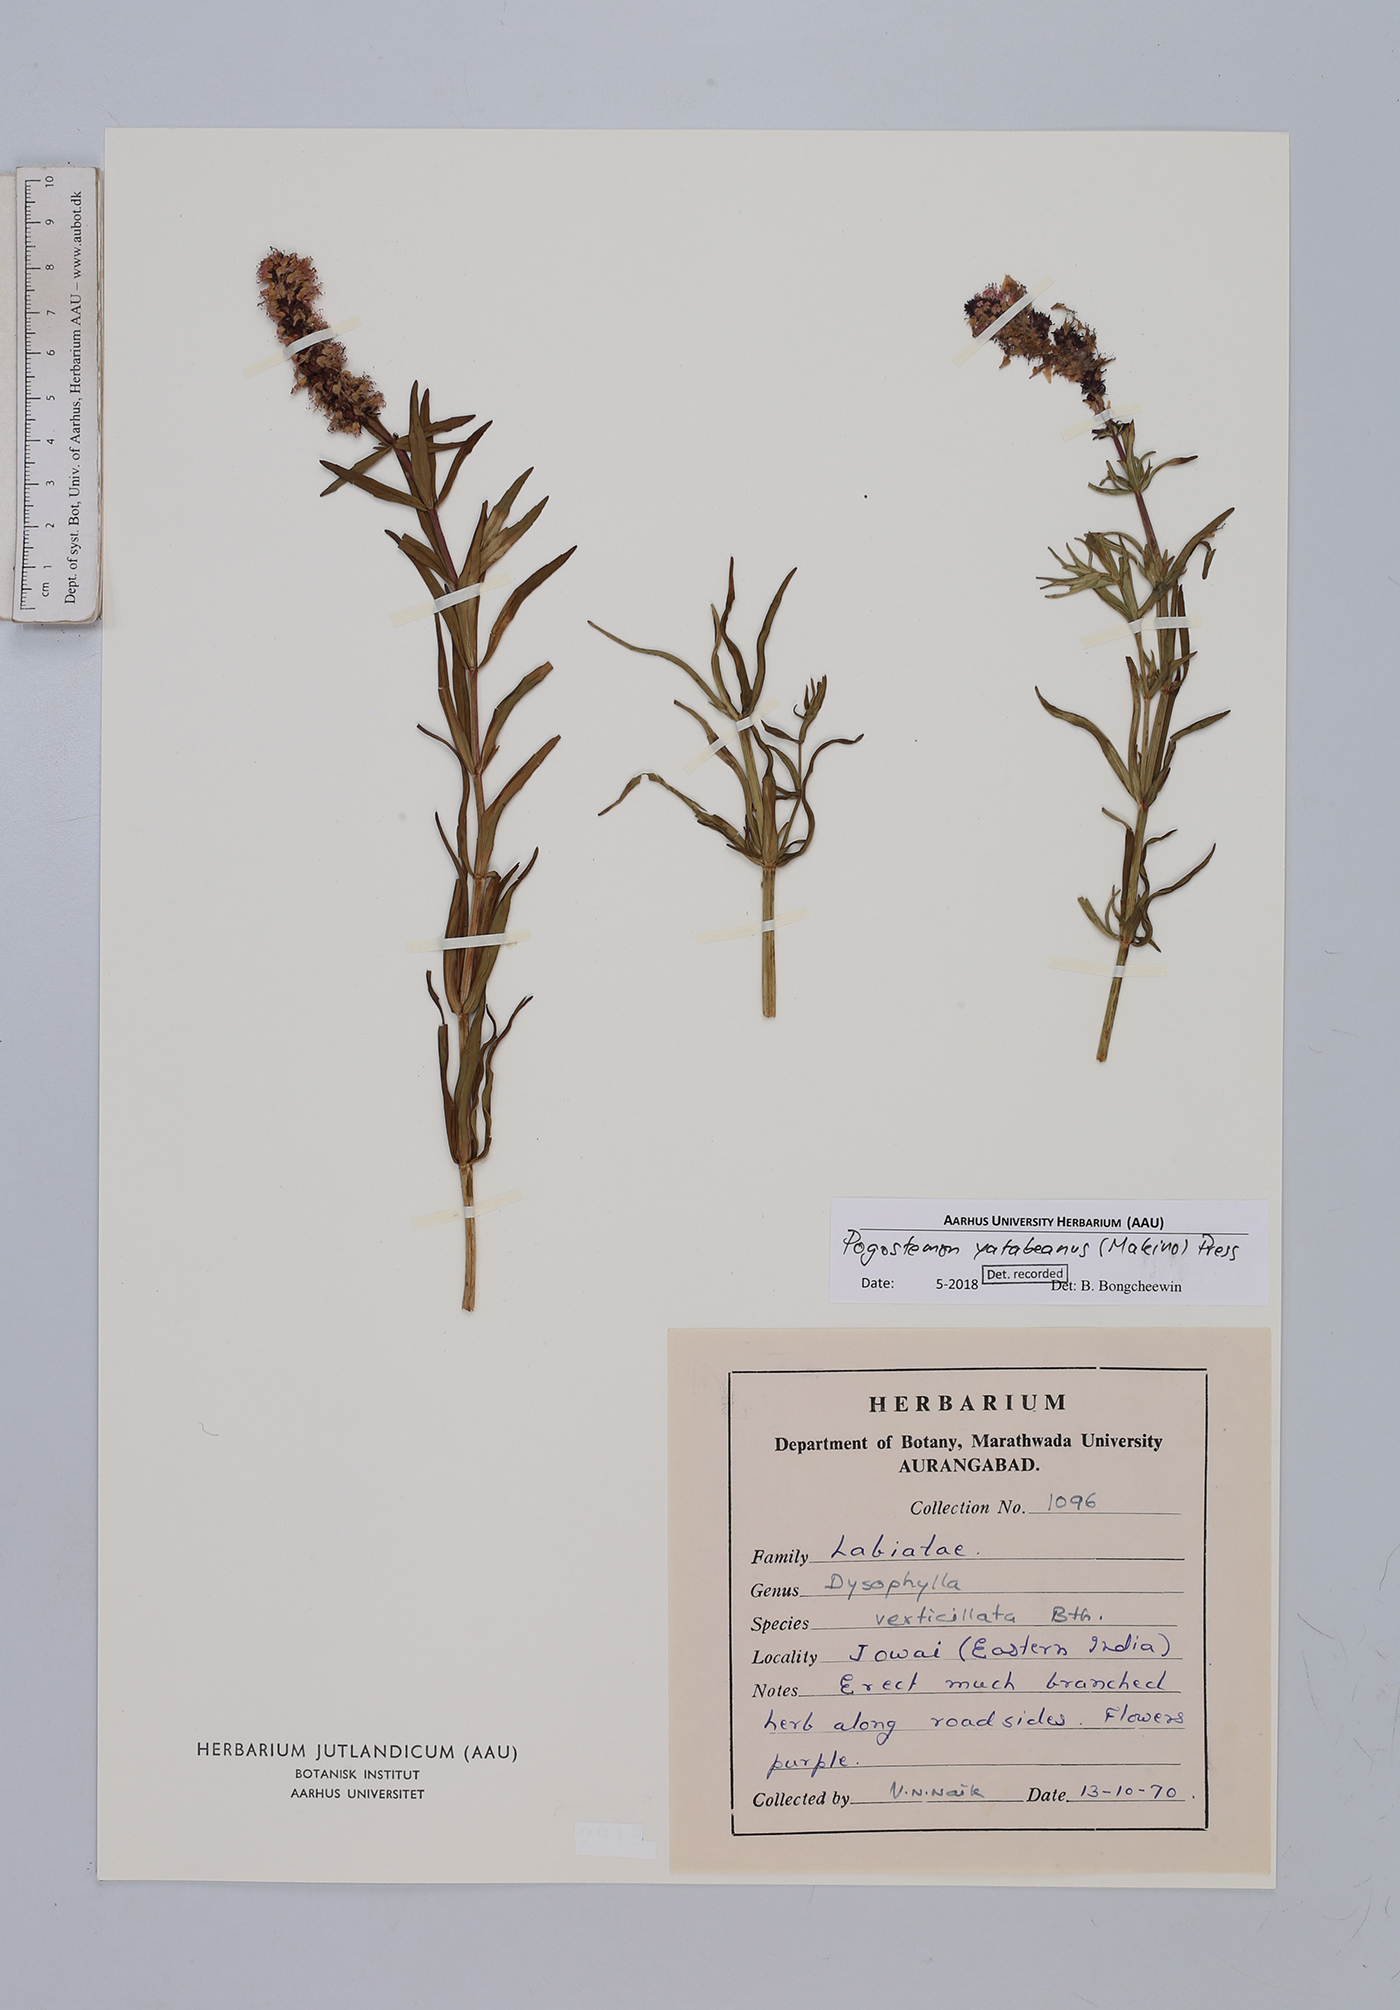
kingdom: Plantae
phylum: Tracheophyta
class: Magnoliopsida
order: Lamiales
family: Lamiaceae
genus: Pogostemon
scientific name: Pogostemon yatabeanus
